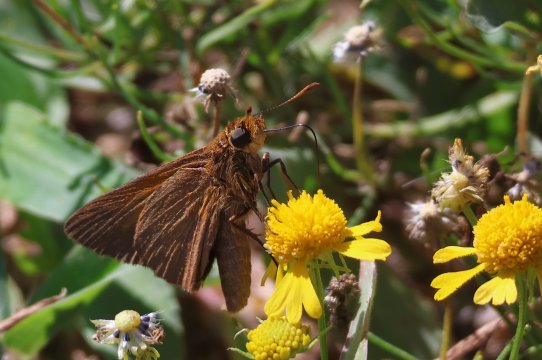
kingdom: Animalia
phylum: Arthropoda
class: Insecta
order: Lepidoptera
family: Hesperiidae
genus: Euphyes
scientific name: Euphyes pilatka
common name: Palatka Skipper
